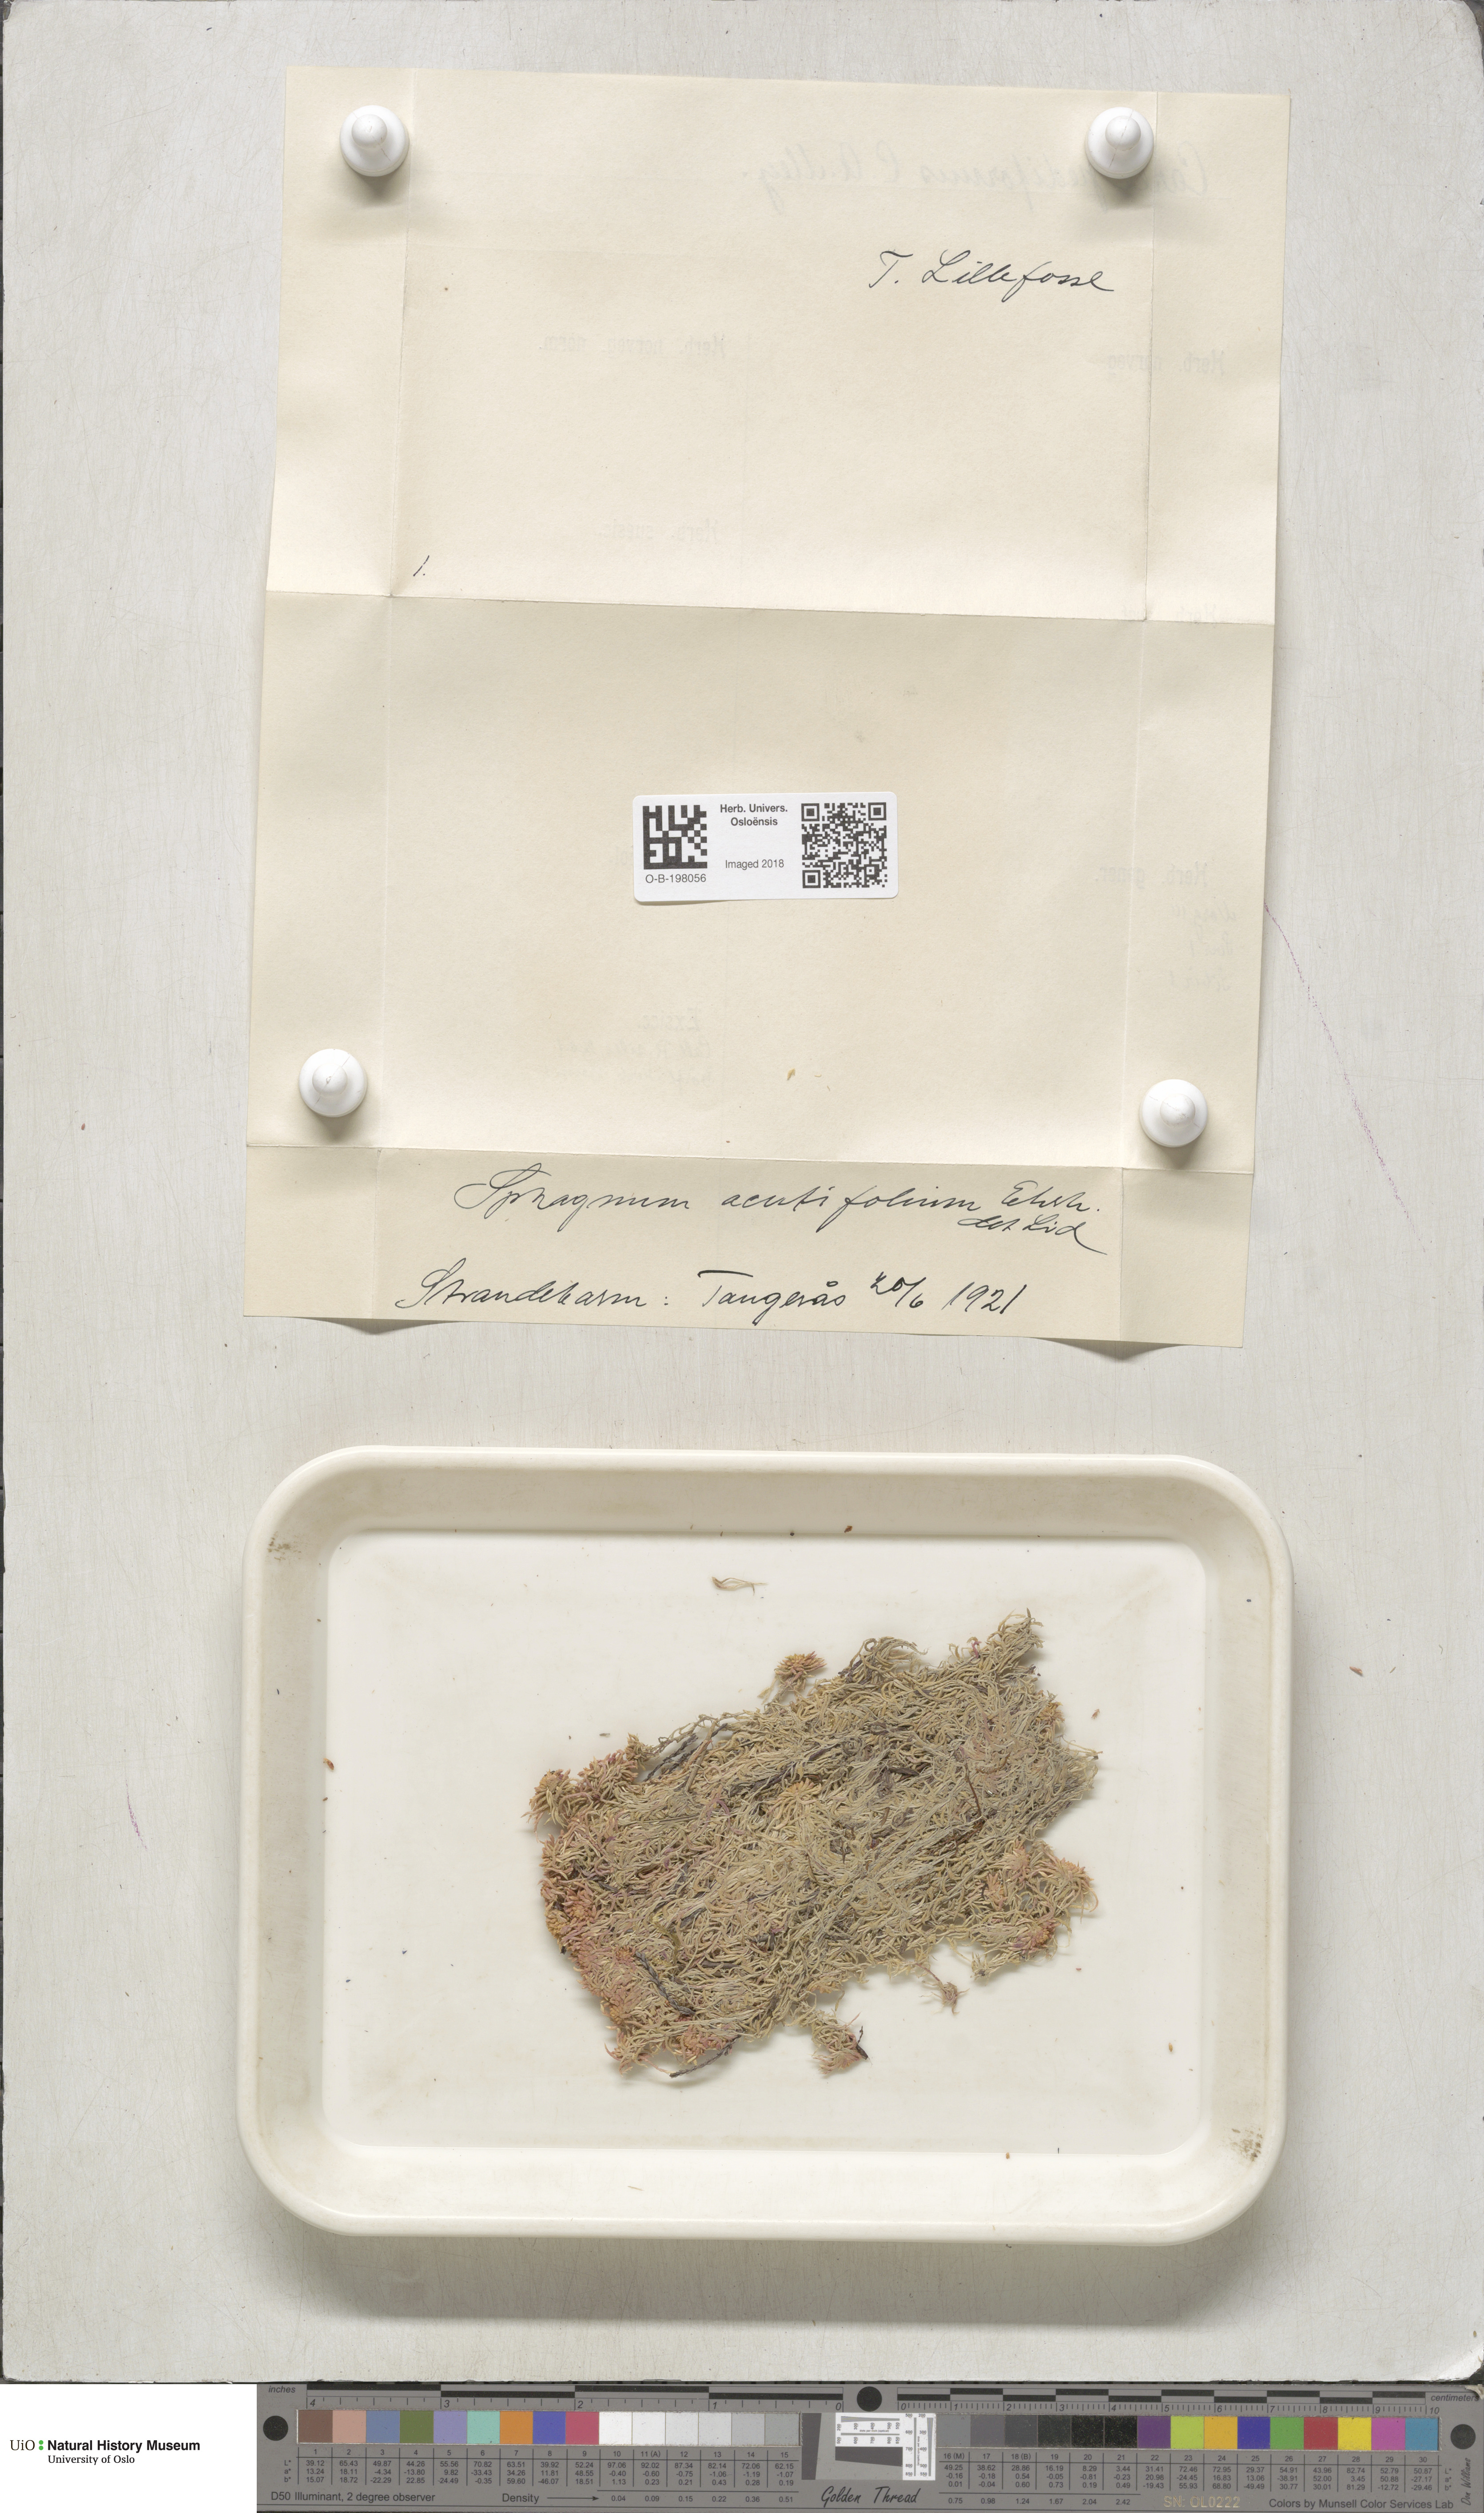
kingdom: Plantae
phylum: Bryophyta
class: Sphagnopsida
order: Sphagnales
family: Sphagnaceae
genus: Sphagnum
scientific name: Sphagnum capillifolium
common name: Small red peat moss
